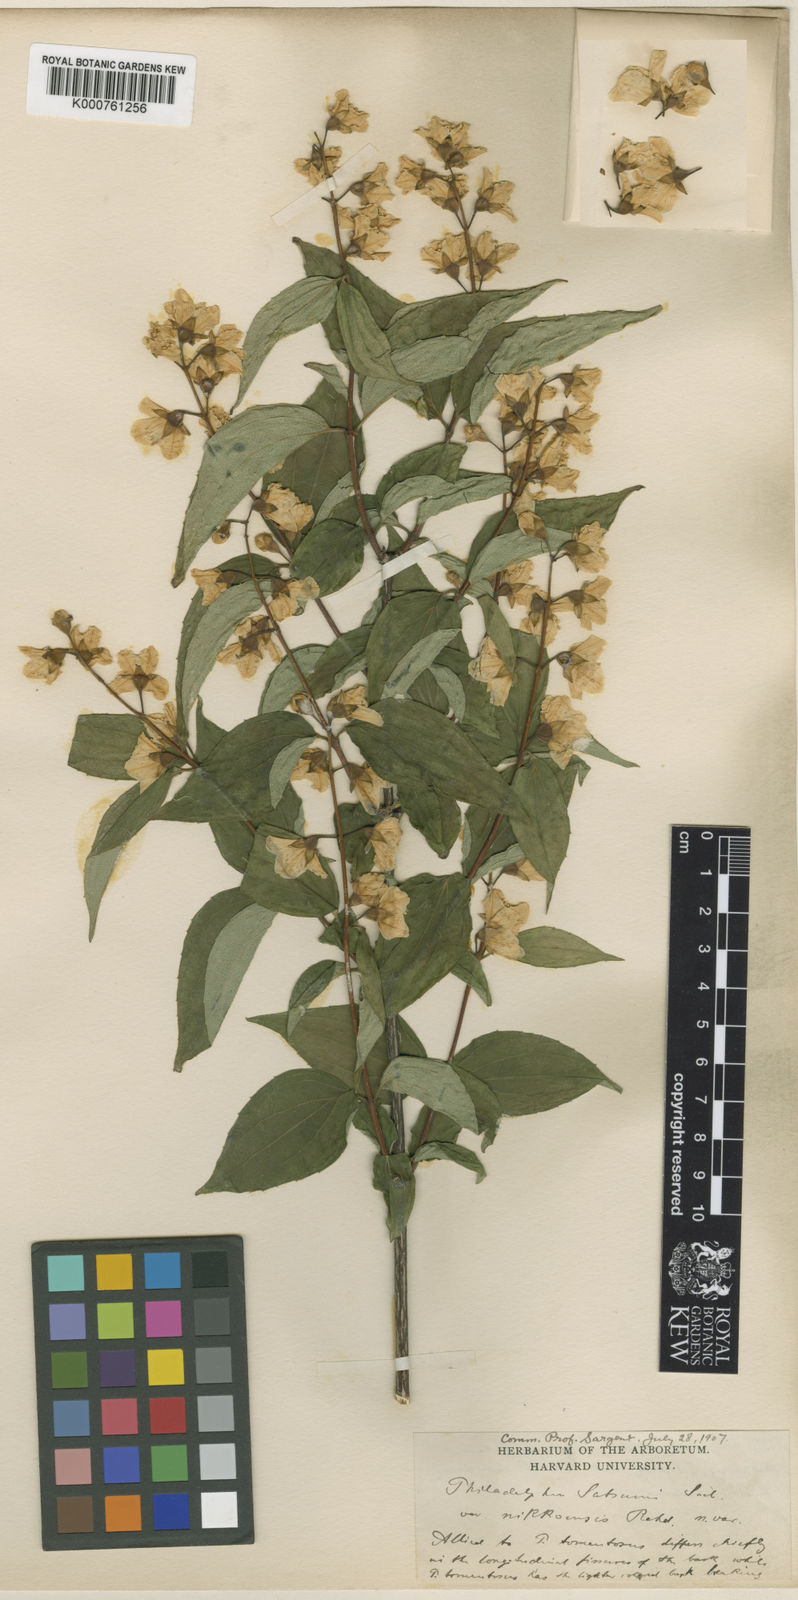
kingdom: Plantae
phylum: Tracheophyta
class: Magnoliopsida
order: Cornales
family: Hydrangeaceae
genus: Philadelphus
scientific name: Philadelphus
